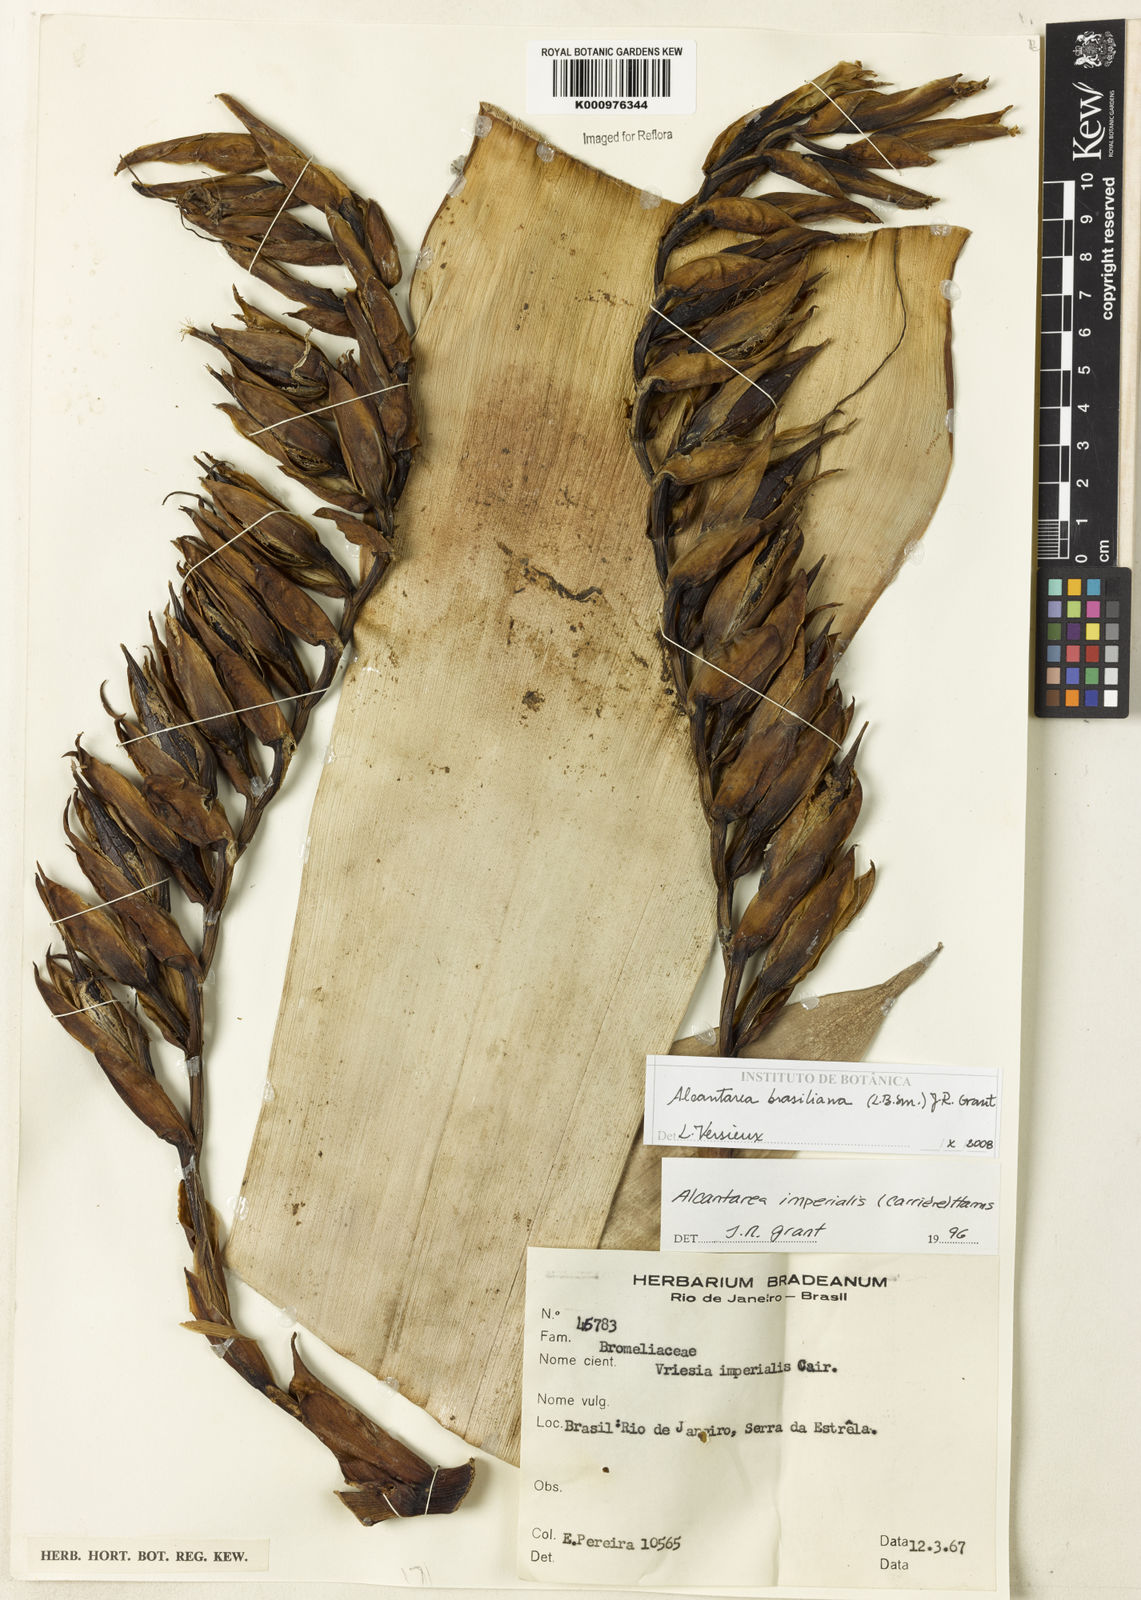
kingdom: Plantae
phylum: Tracheophyta
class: Liliopsida
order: Poales
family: Bromeliaceae
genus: Vriesea
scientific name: Vriesea
